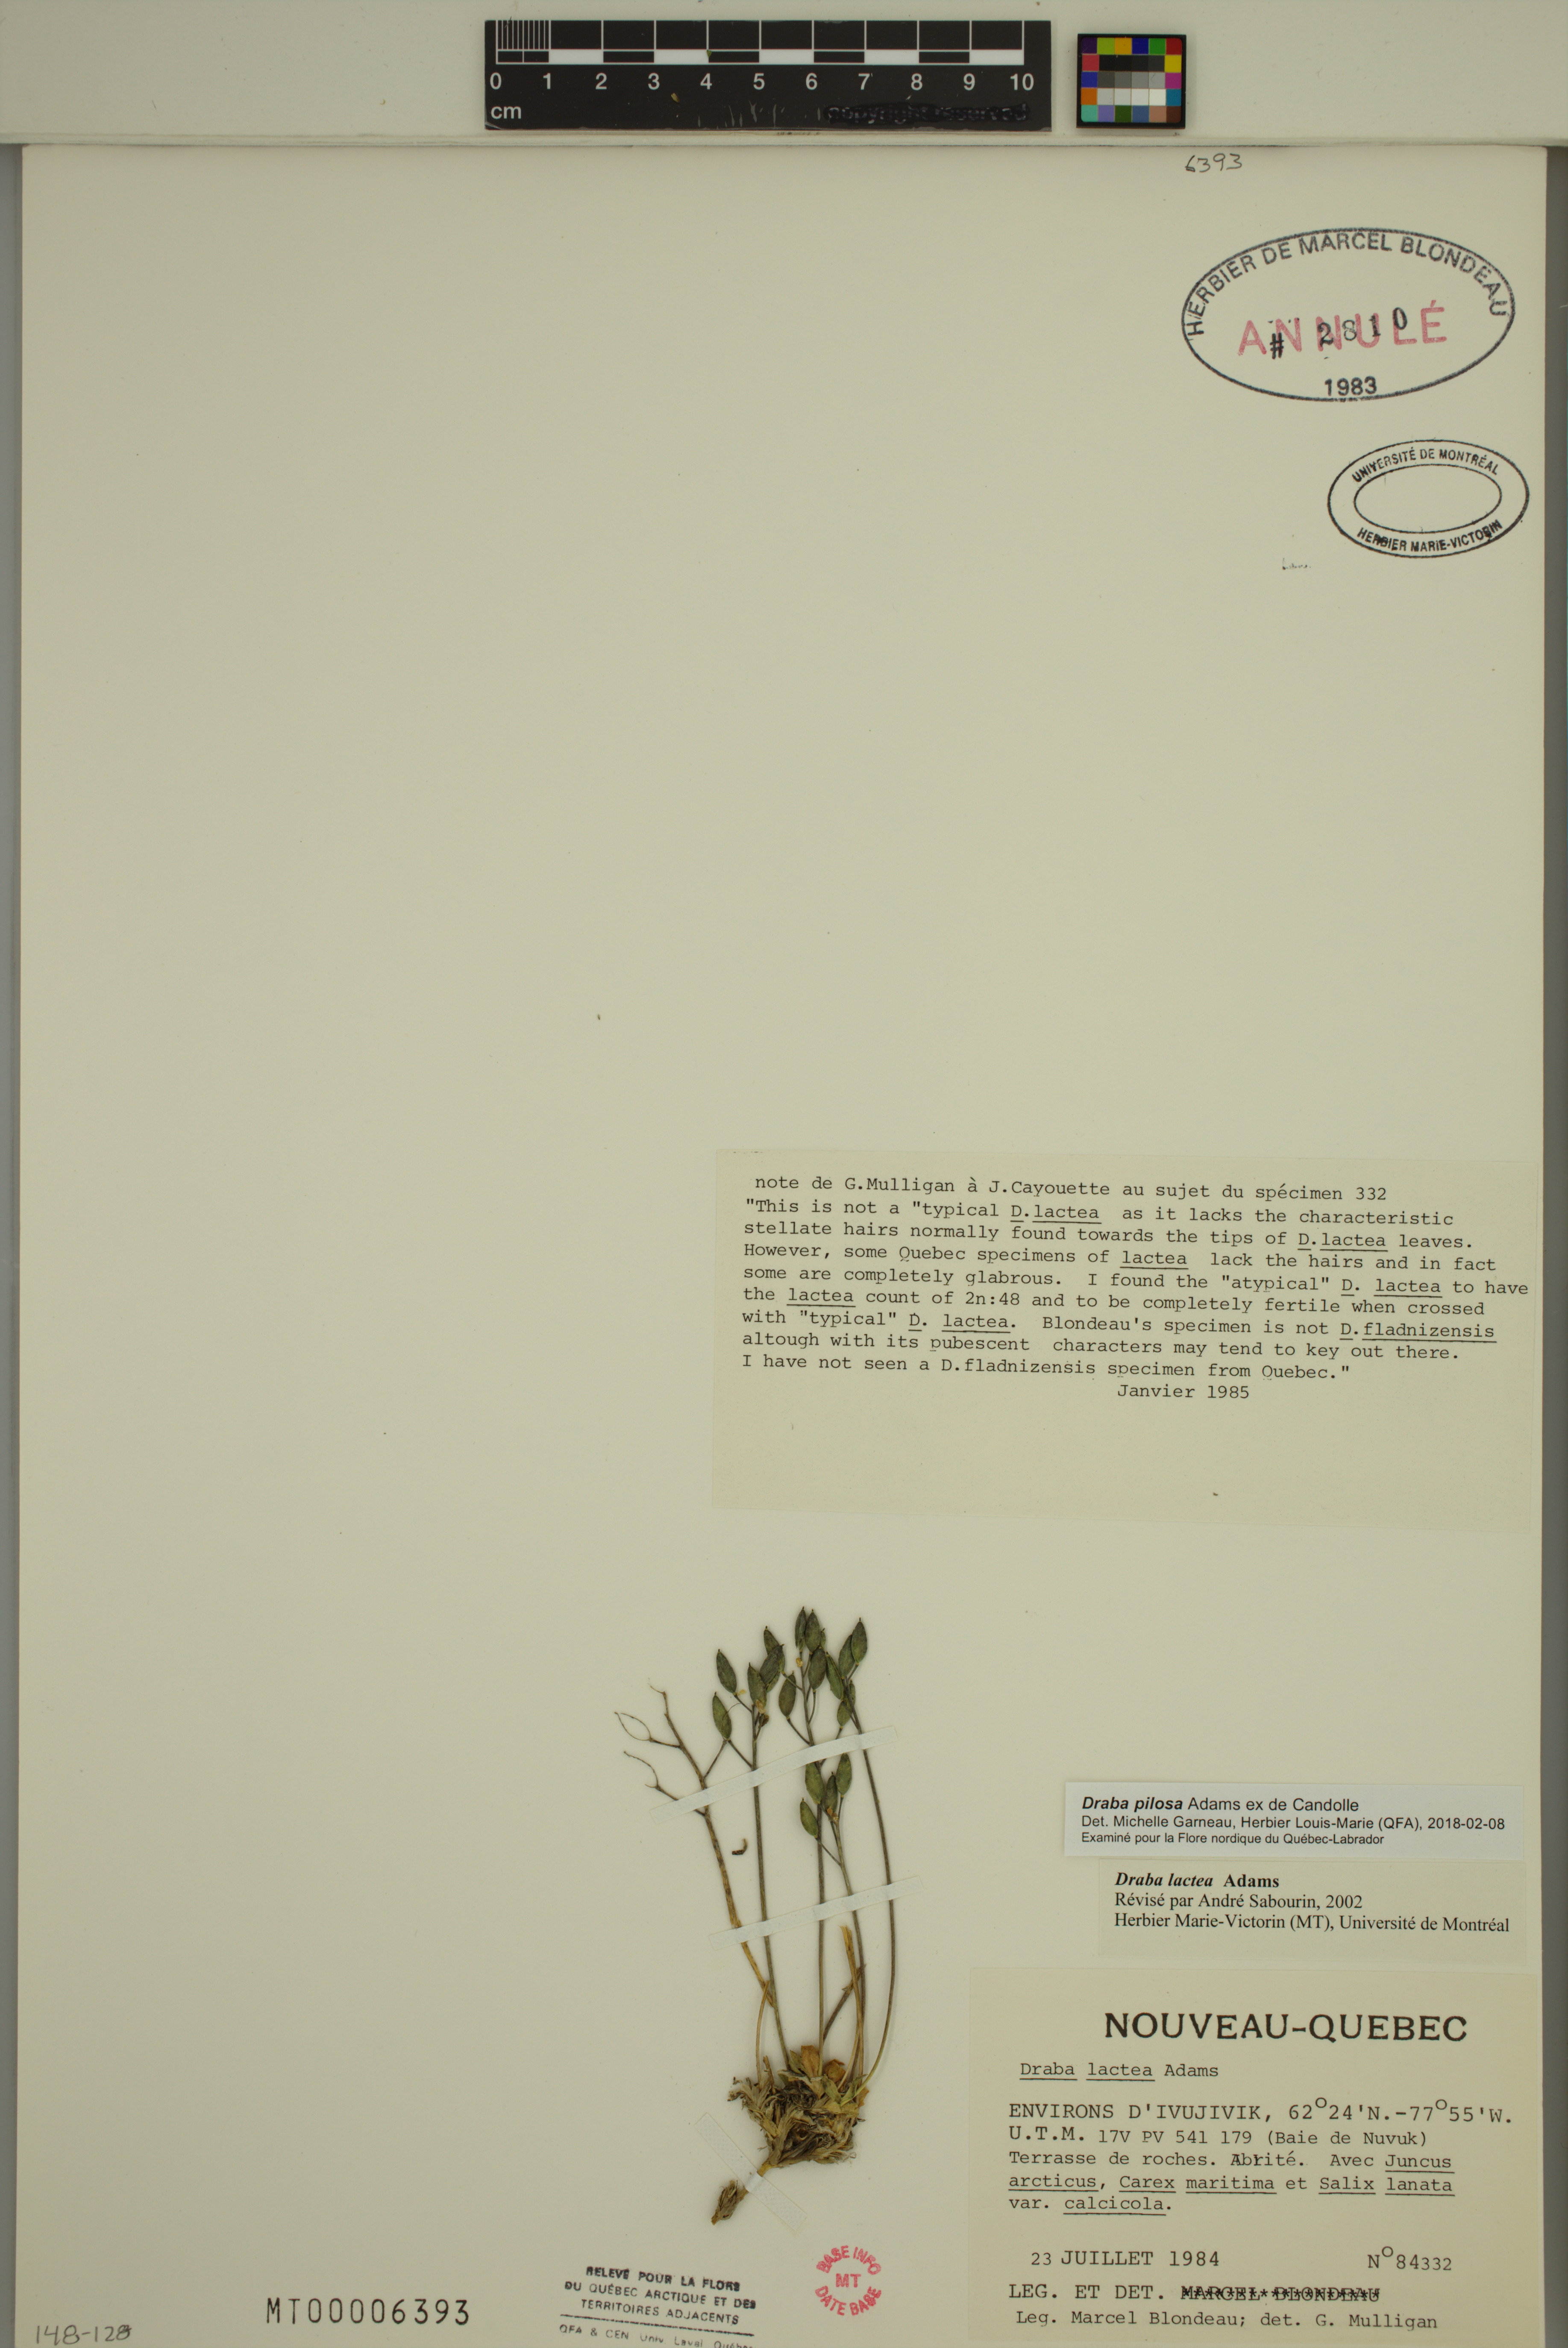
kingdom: Plantae
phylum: Tracheophyta
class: Magnoliopsida
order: Brassicales
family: Brassicaceae
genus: Draba
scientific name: Draba pilosa
